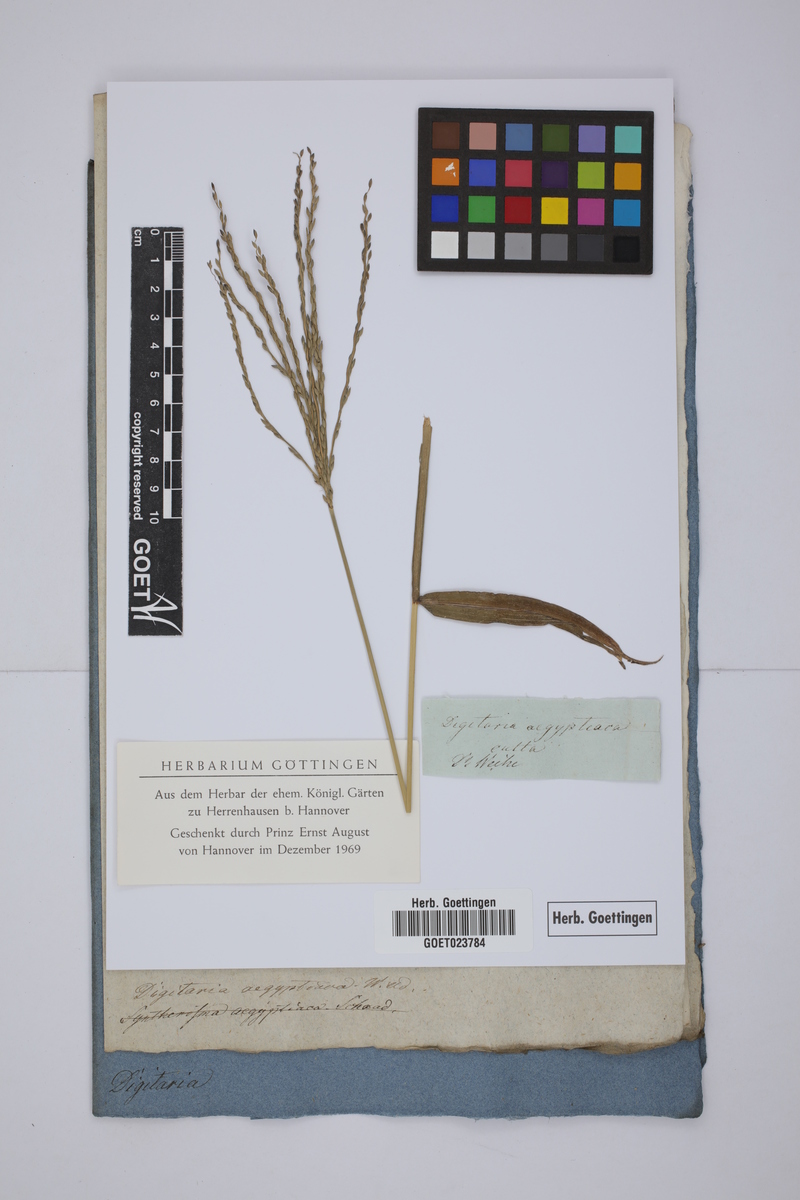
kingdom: Plantae
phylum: Tracheophyta
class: Liliopsida
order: Poales
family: Poaceae
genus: Digitaria
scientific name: Digitaria sanguinalis
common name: Hairy crabgrass
